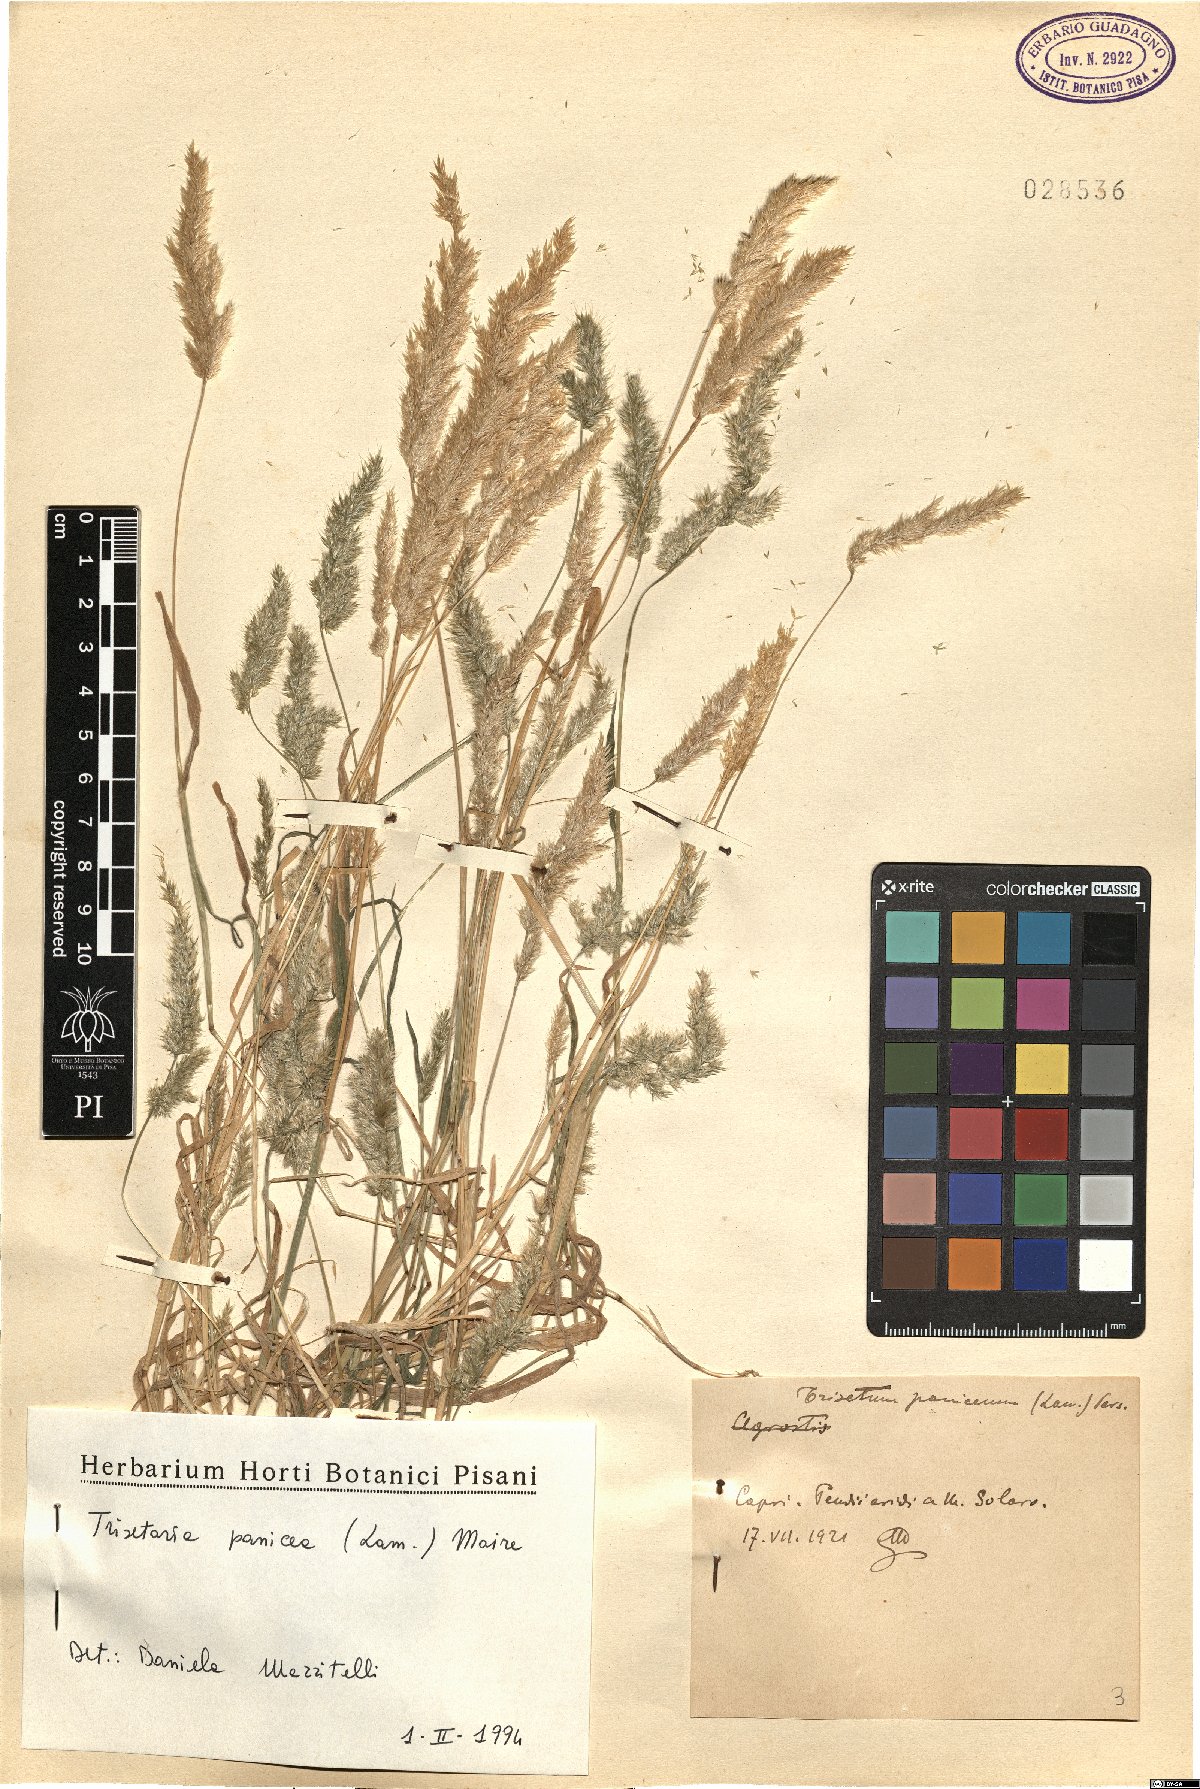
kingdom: Plantae
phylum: Tracheophyta
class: Liliopsida
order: Poales
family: Poaceae
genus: Trisetaria
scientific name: Trisetaria panicea
